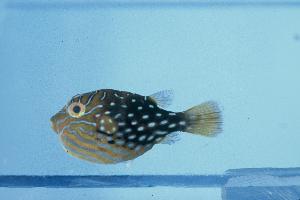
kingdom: Animalia
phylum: Chordata
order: Tetraodontiformes
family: Tetraodontidae
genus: Canthigaster
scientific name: Canthigaster amboinensis
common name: Ambon pufferfish
